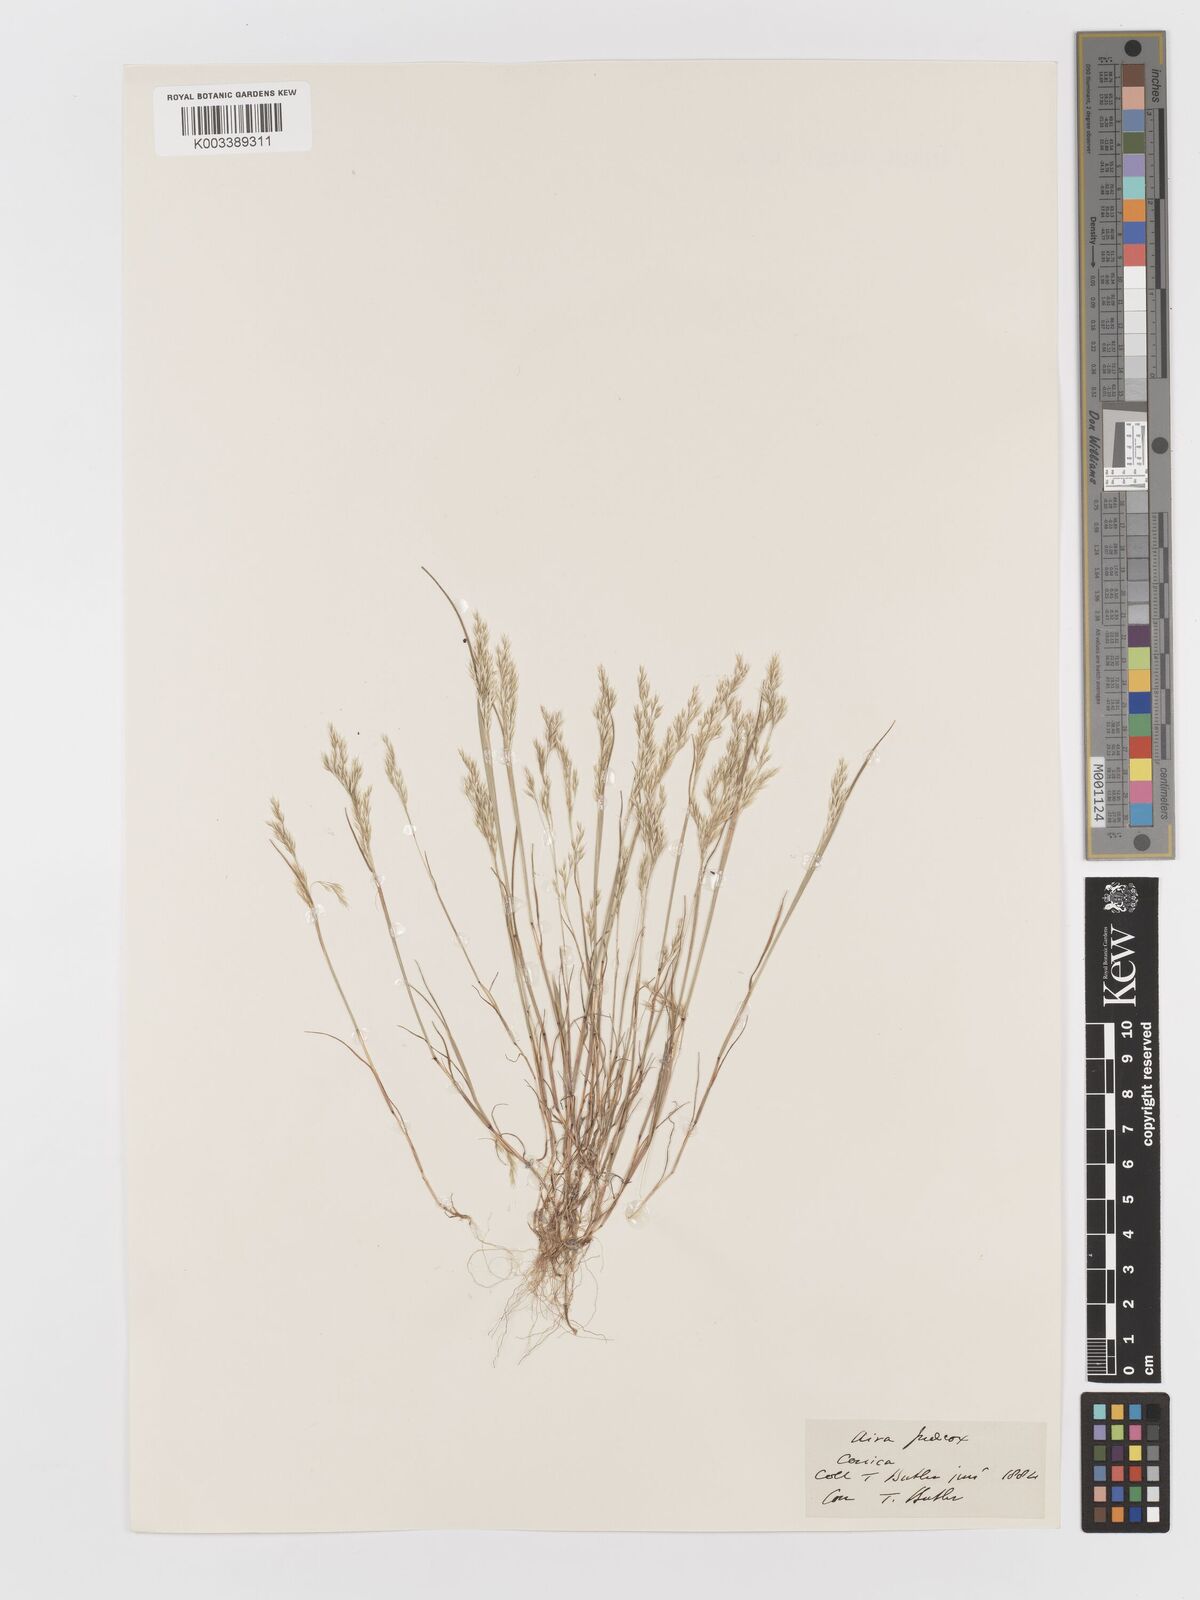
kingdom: Plantae
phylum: Tracheophyta
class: Liliopsida
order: Poales
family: Poaceae
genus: Aira
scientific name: Aira praecox
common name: Early hair-grass
